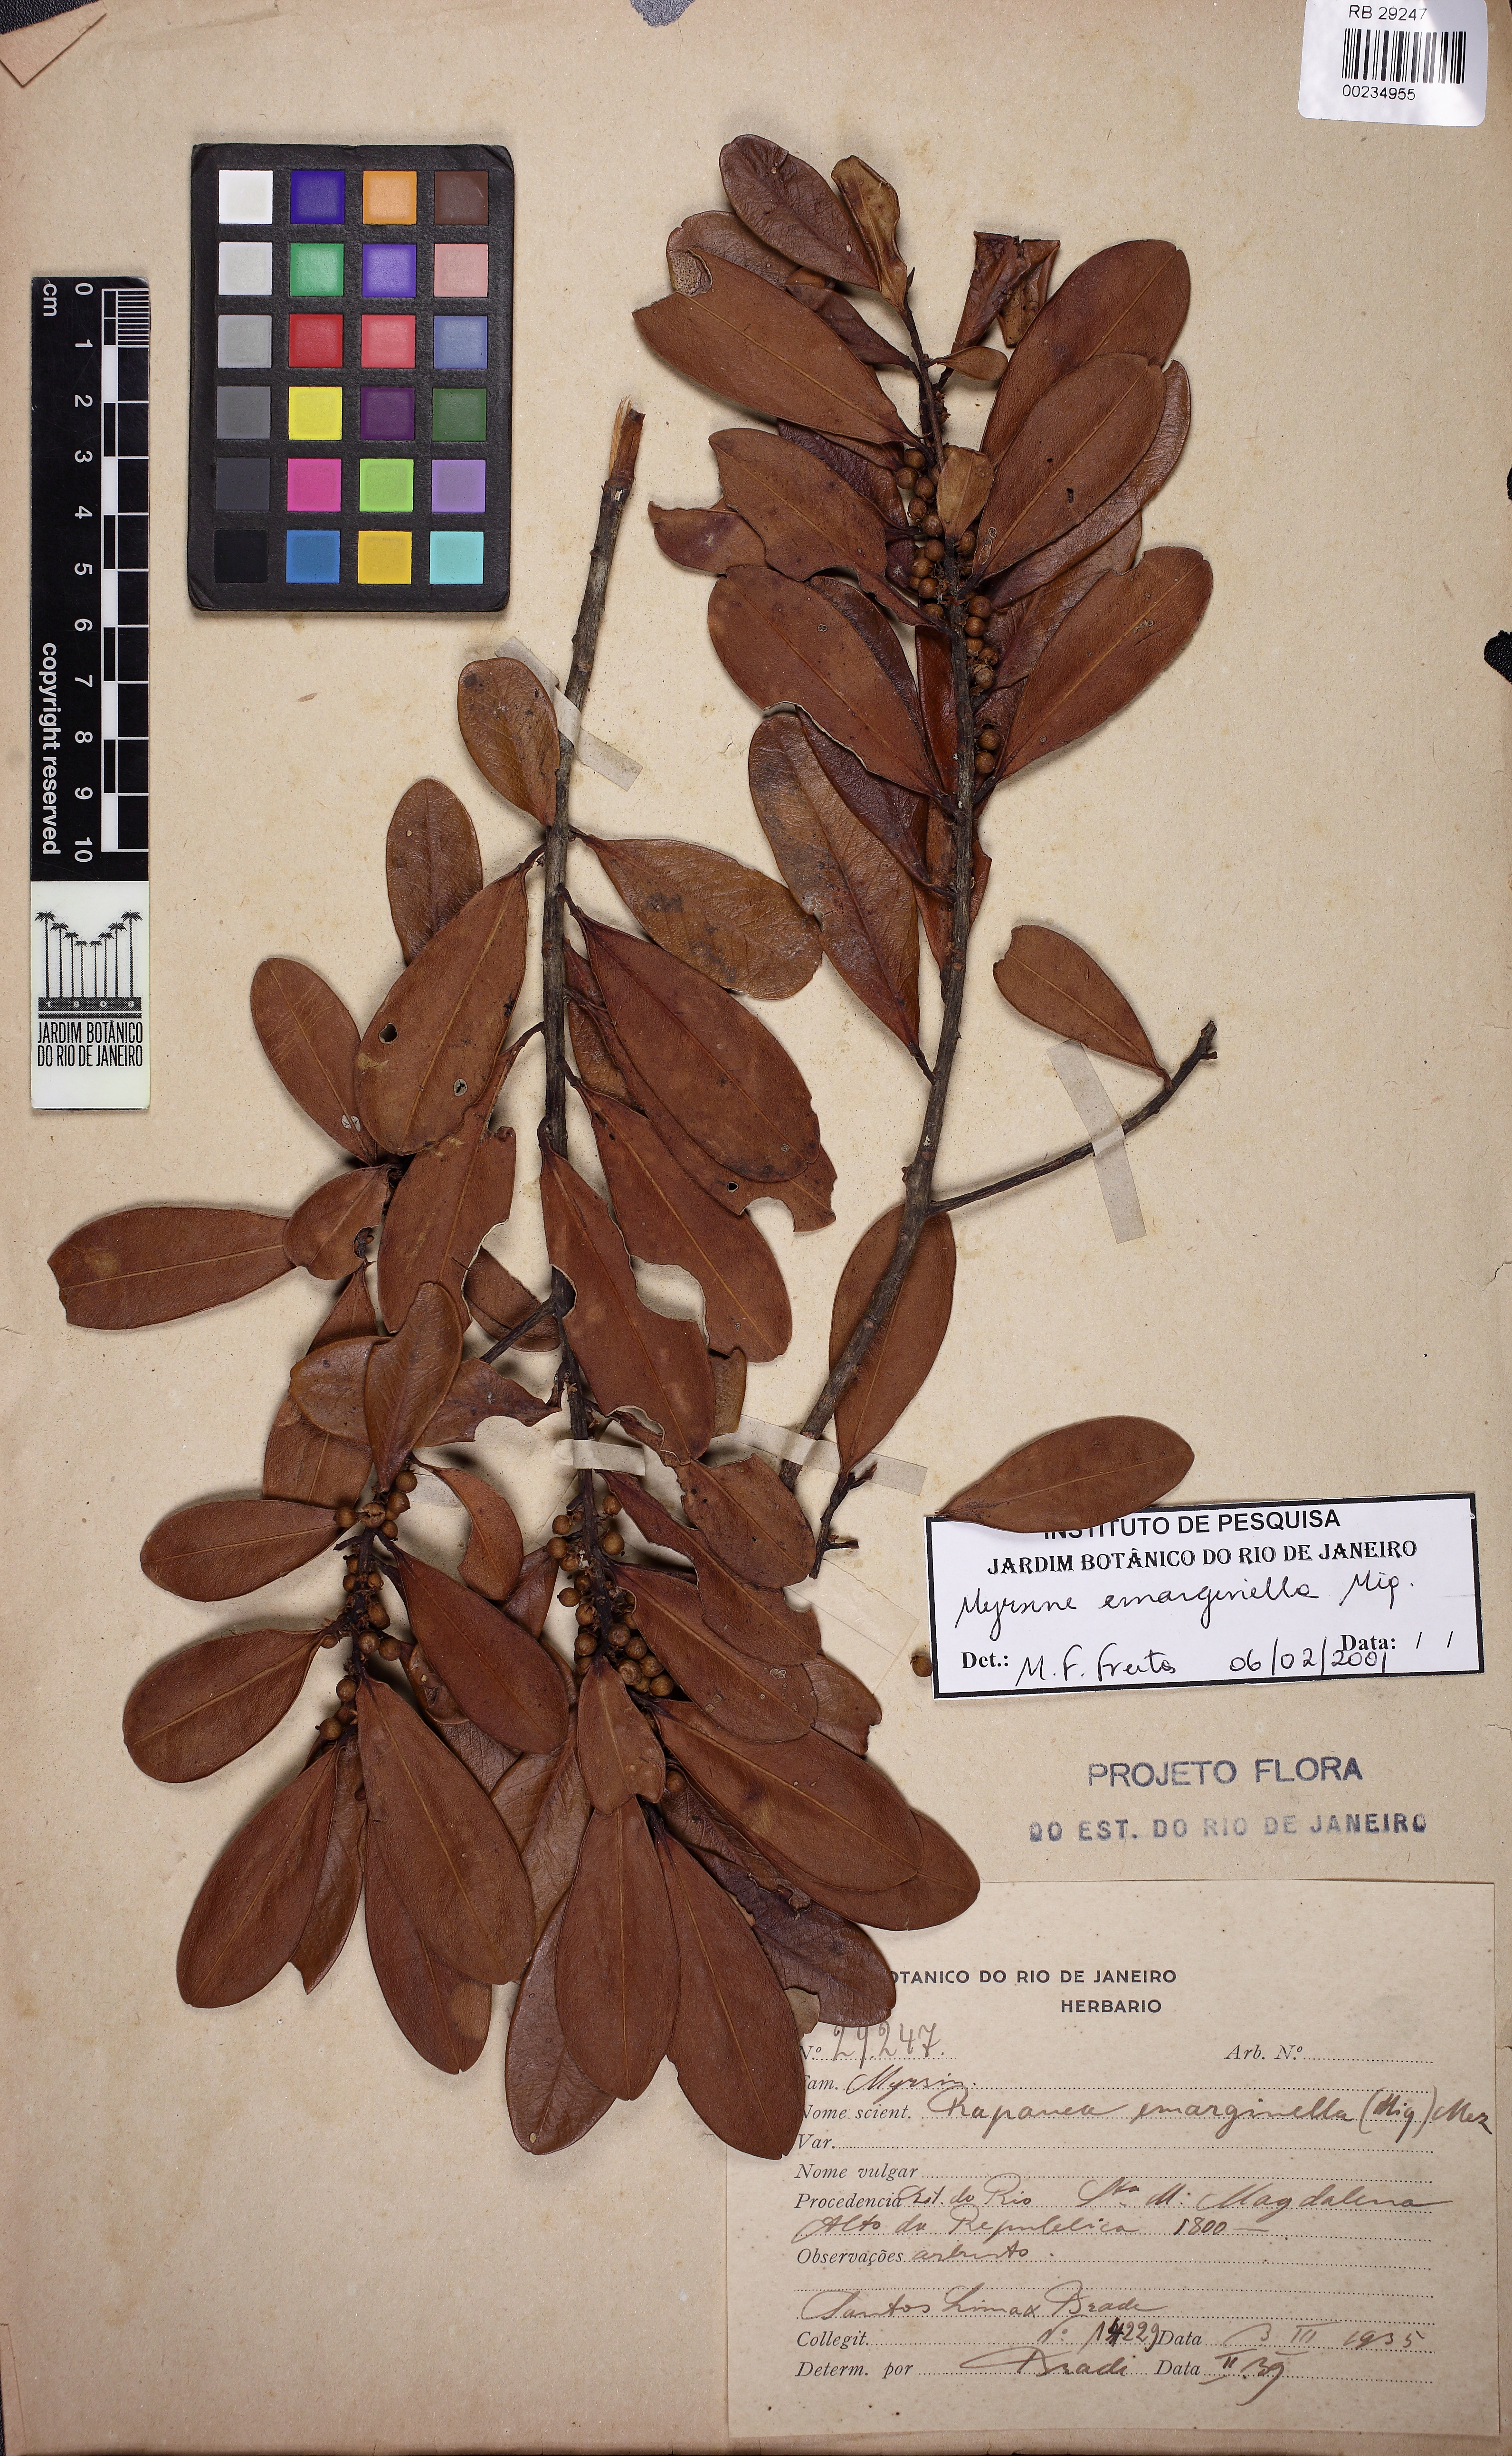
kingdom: Plantae
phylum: Tracheophyta
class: Magnoliopsida
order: Ericales
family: Primulaceae
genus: Myrsine
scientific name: Myrsine emarginella
